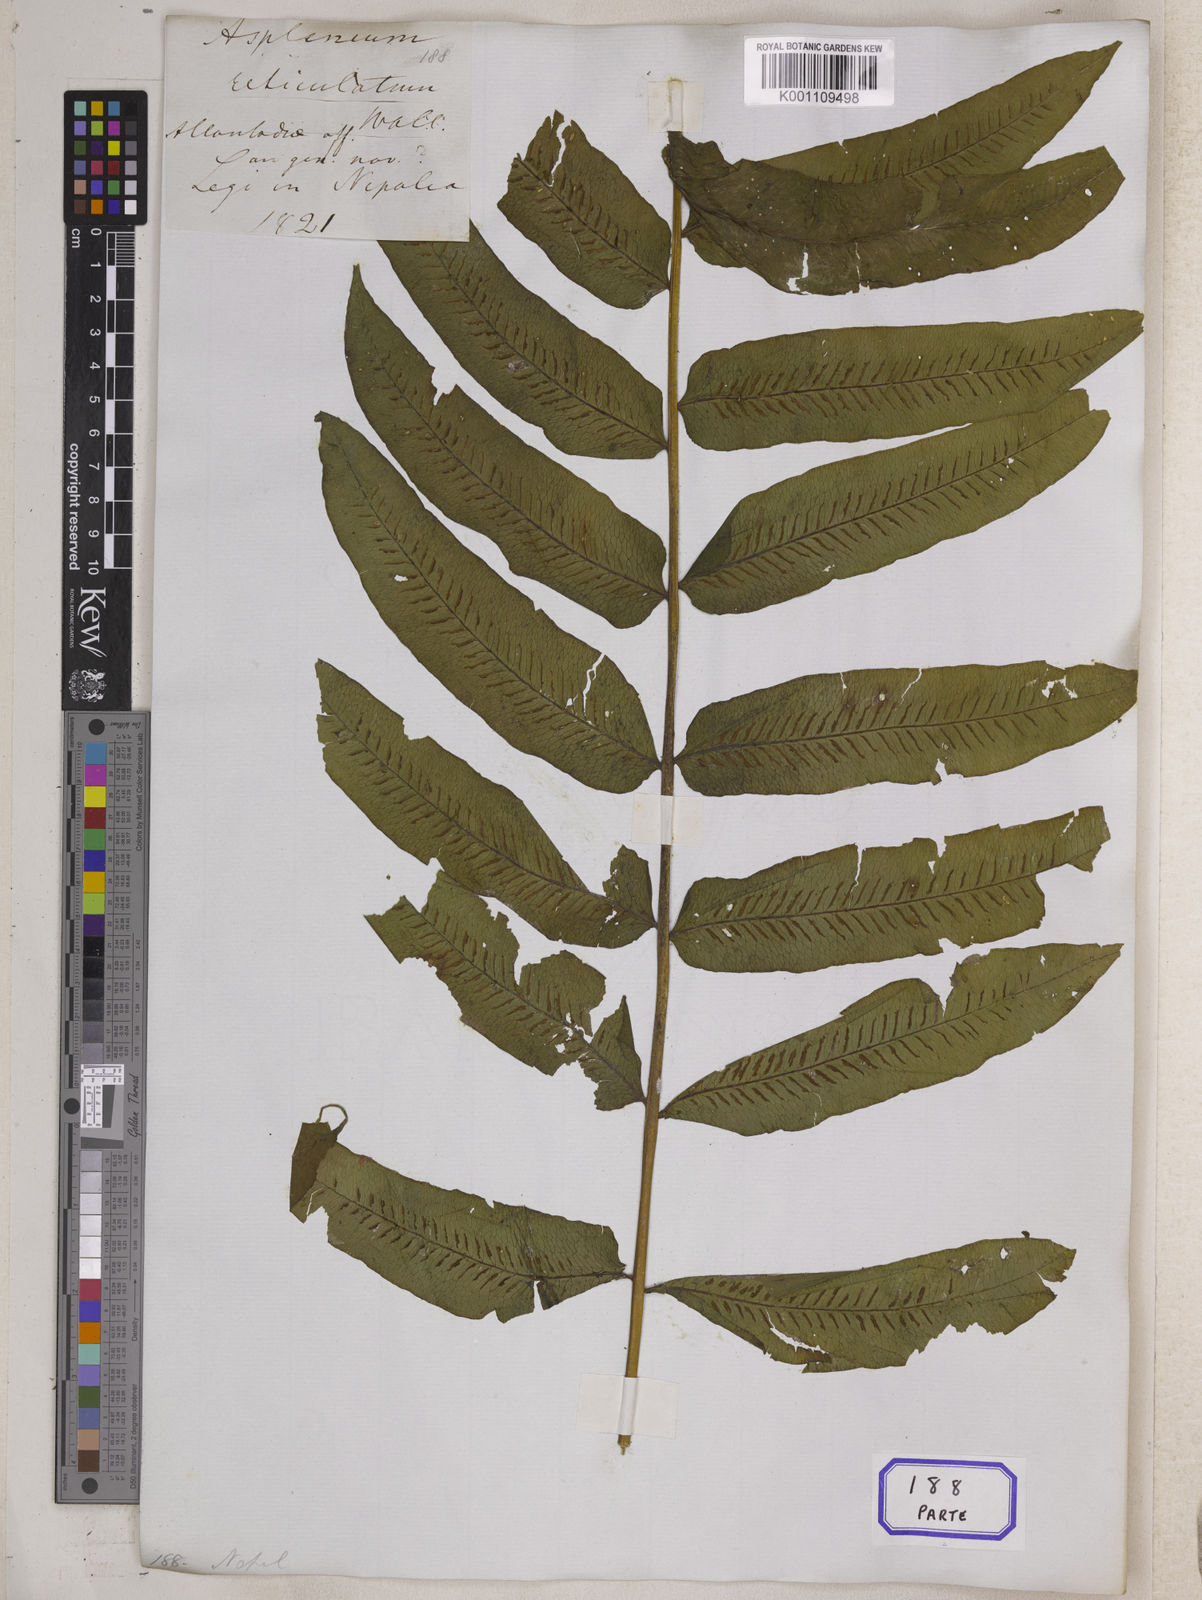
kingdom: Plantae
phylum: Tracheophyta
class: Polypodiopsida
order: Polypodiales
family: Diplaziopsidaceae
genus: Diplaziopsis
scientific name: Diplaziopsis javanica
